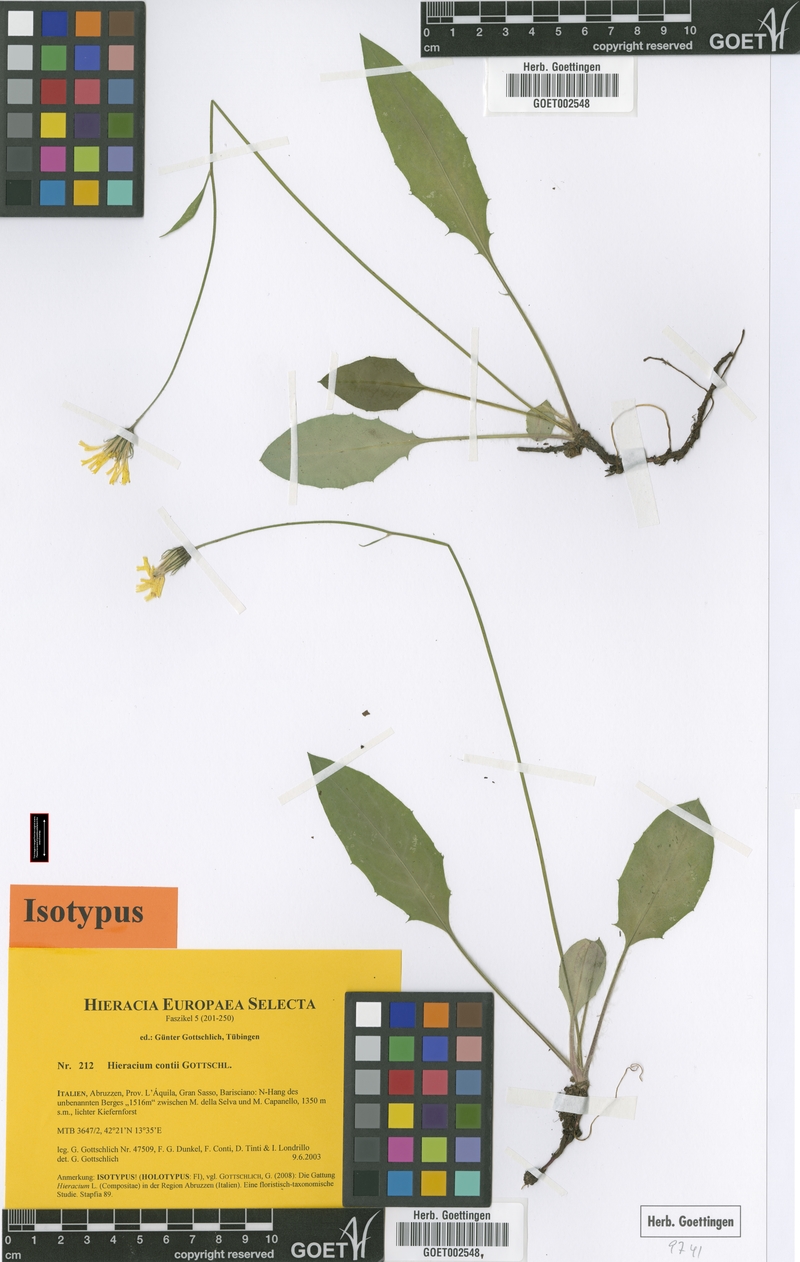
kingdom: Plantae
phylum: Tracheophyta
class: Magnoliopsida
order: Asterales
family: Asteraceae
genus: Hieracium
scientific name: Hieracium contii
